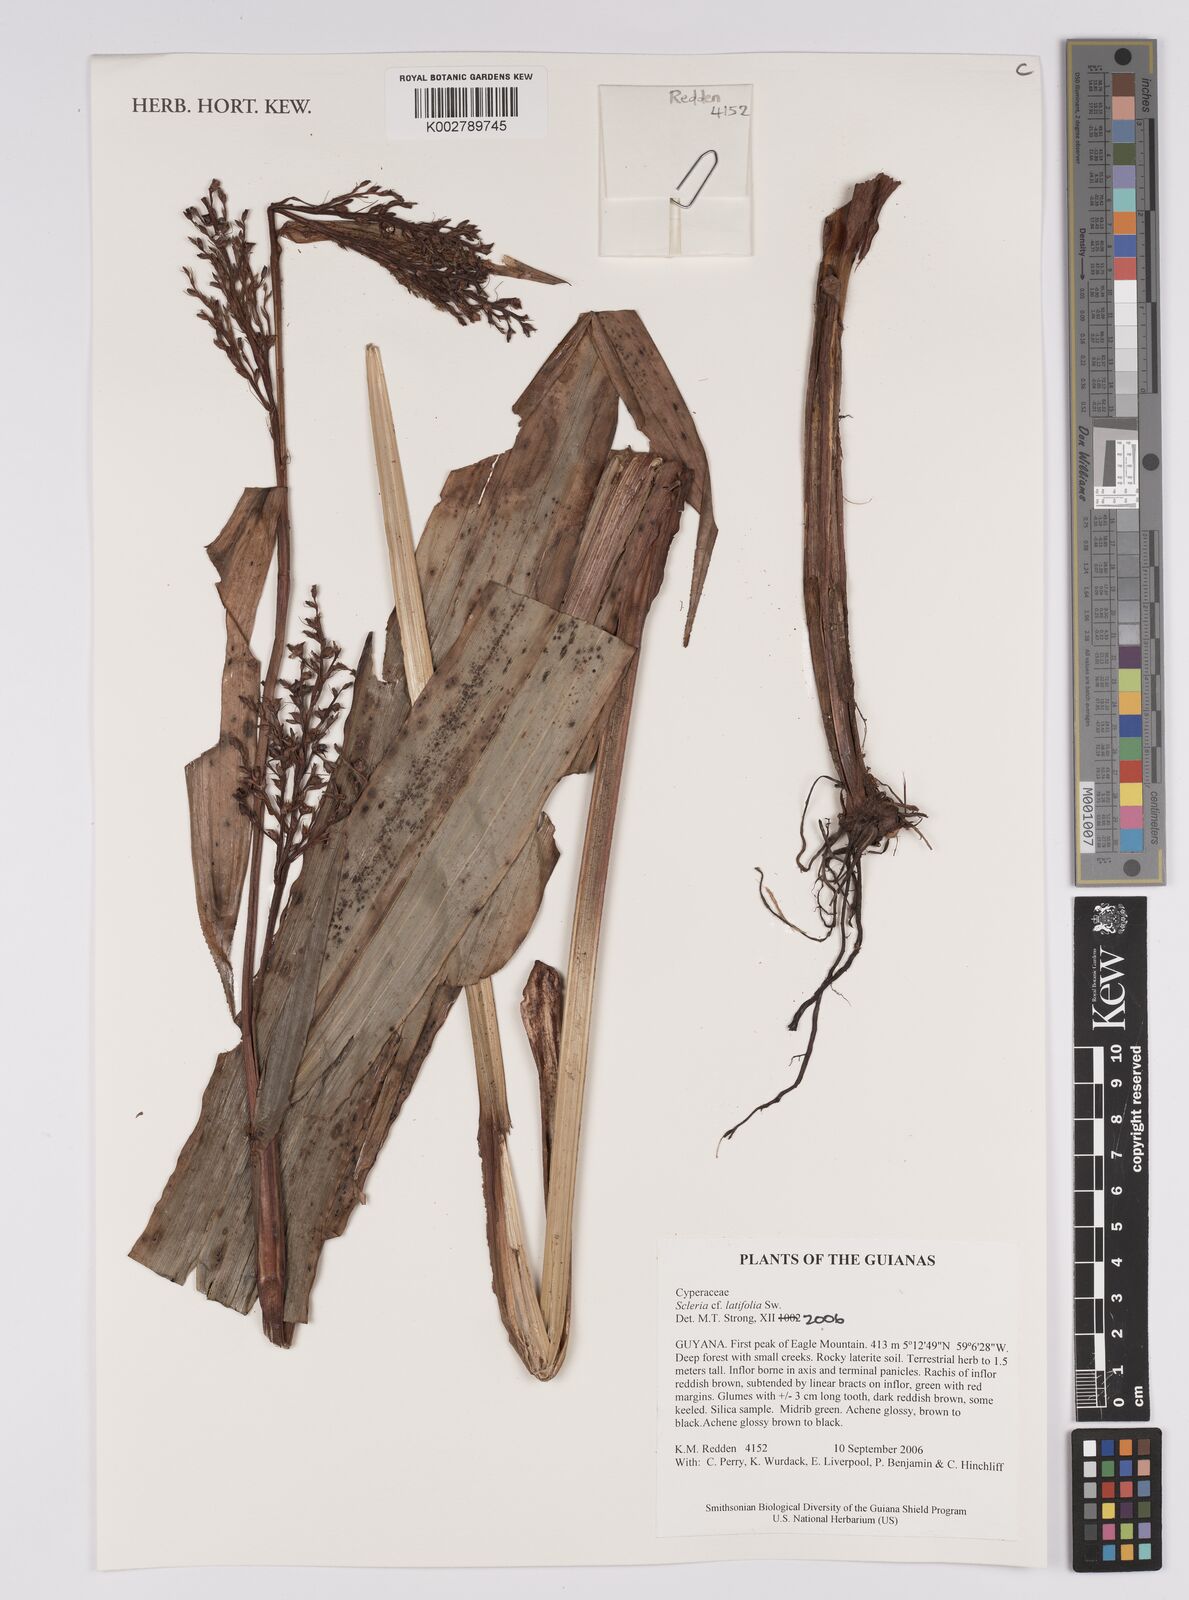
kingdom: Plantae
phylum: Tracheophyta
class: Liliopsida
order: Poales
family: Cyperaceae
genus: Scleria
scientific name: Scleria latifolia
